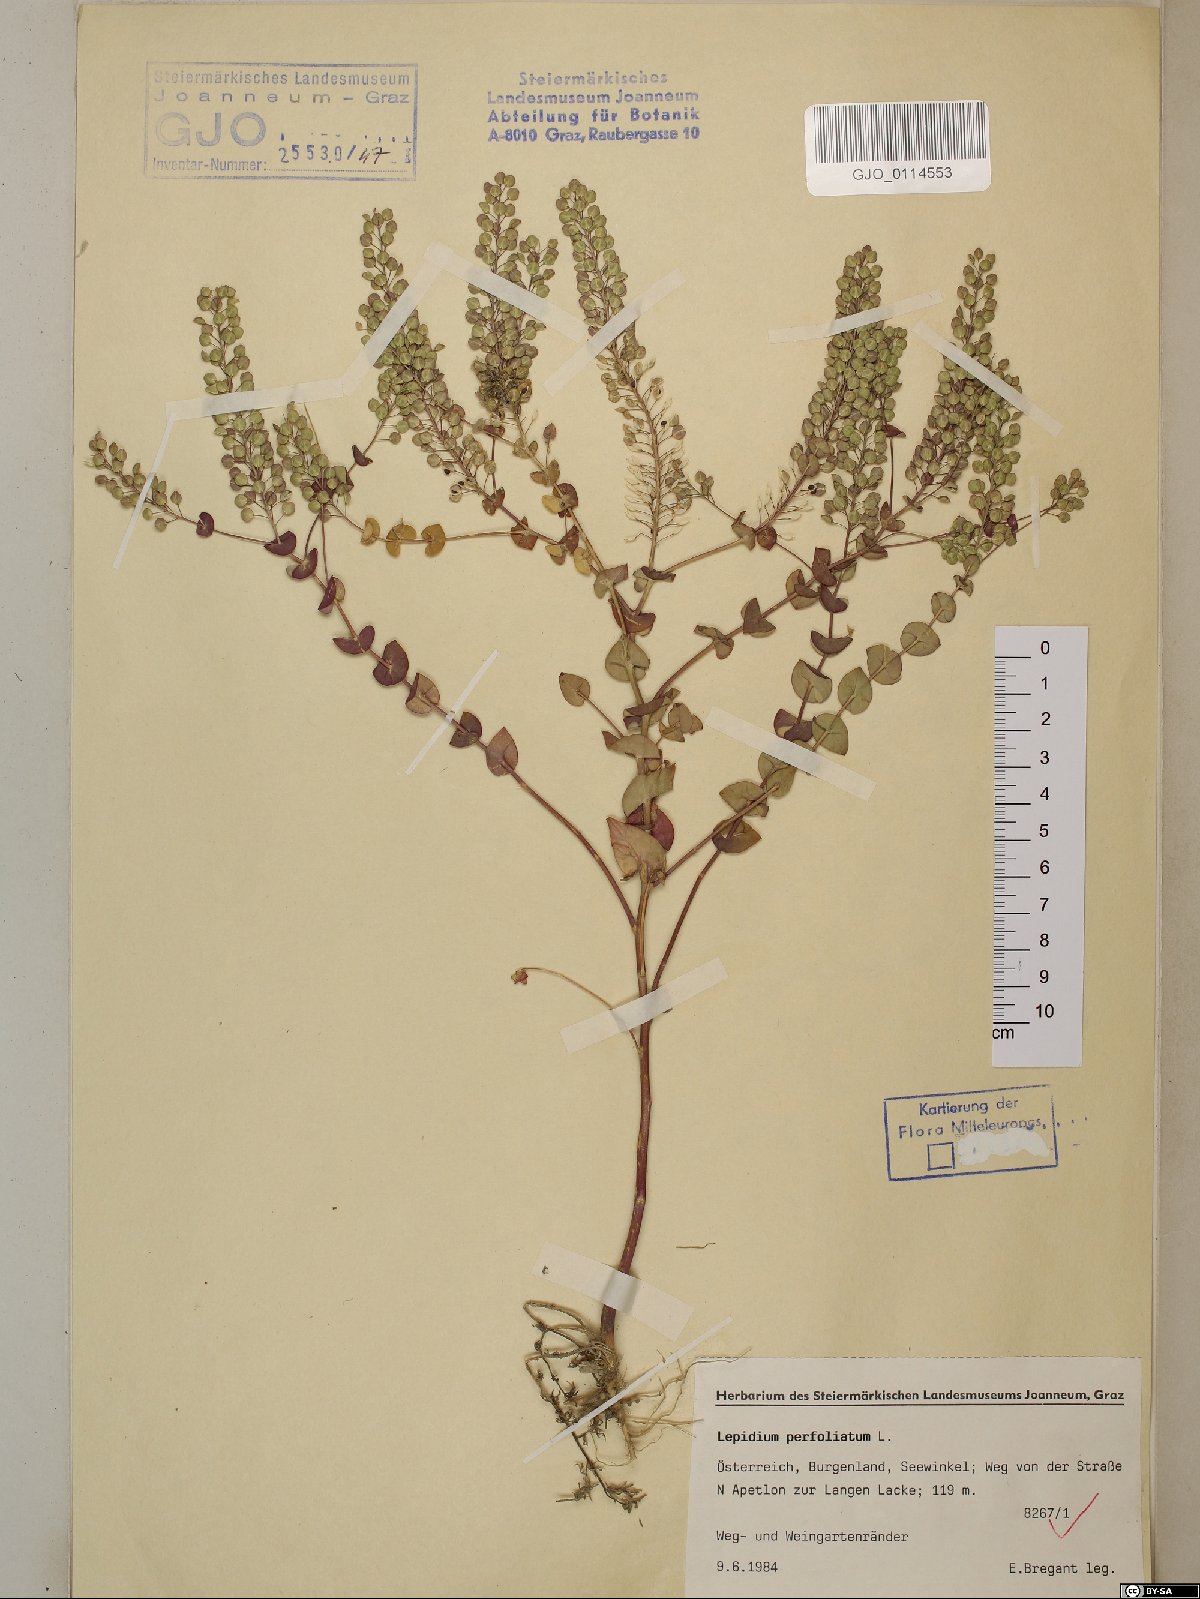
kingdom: Plantae
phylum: Tracheophyta
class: Magnoliopsida
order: Brassicales
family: Brassicaceae
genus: Lepidium
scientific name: Lepidium perfoliatum
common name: Perfoliate pepperwort
